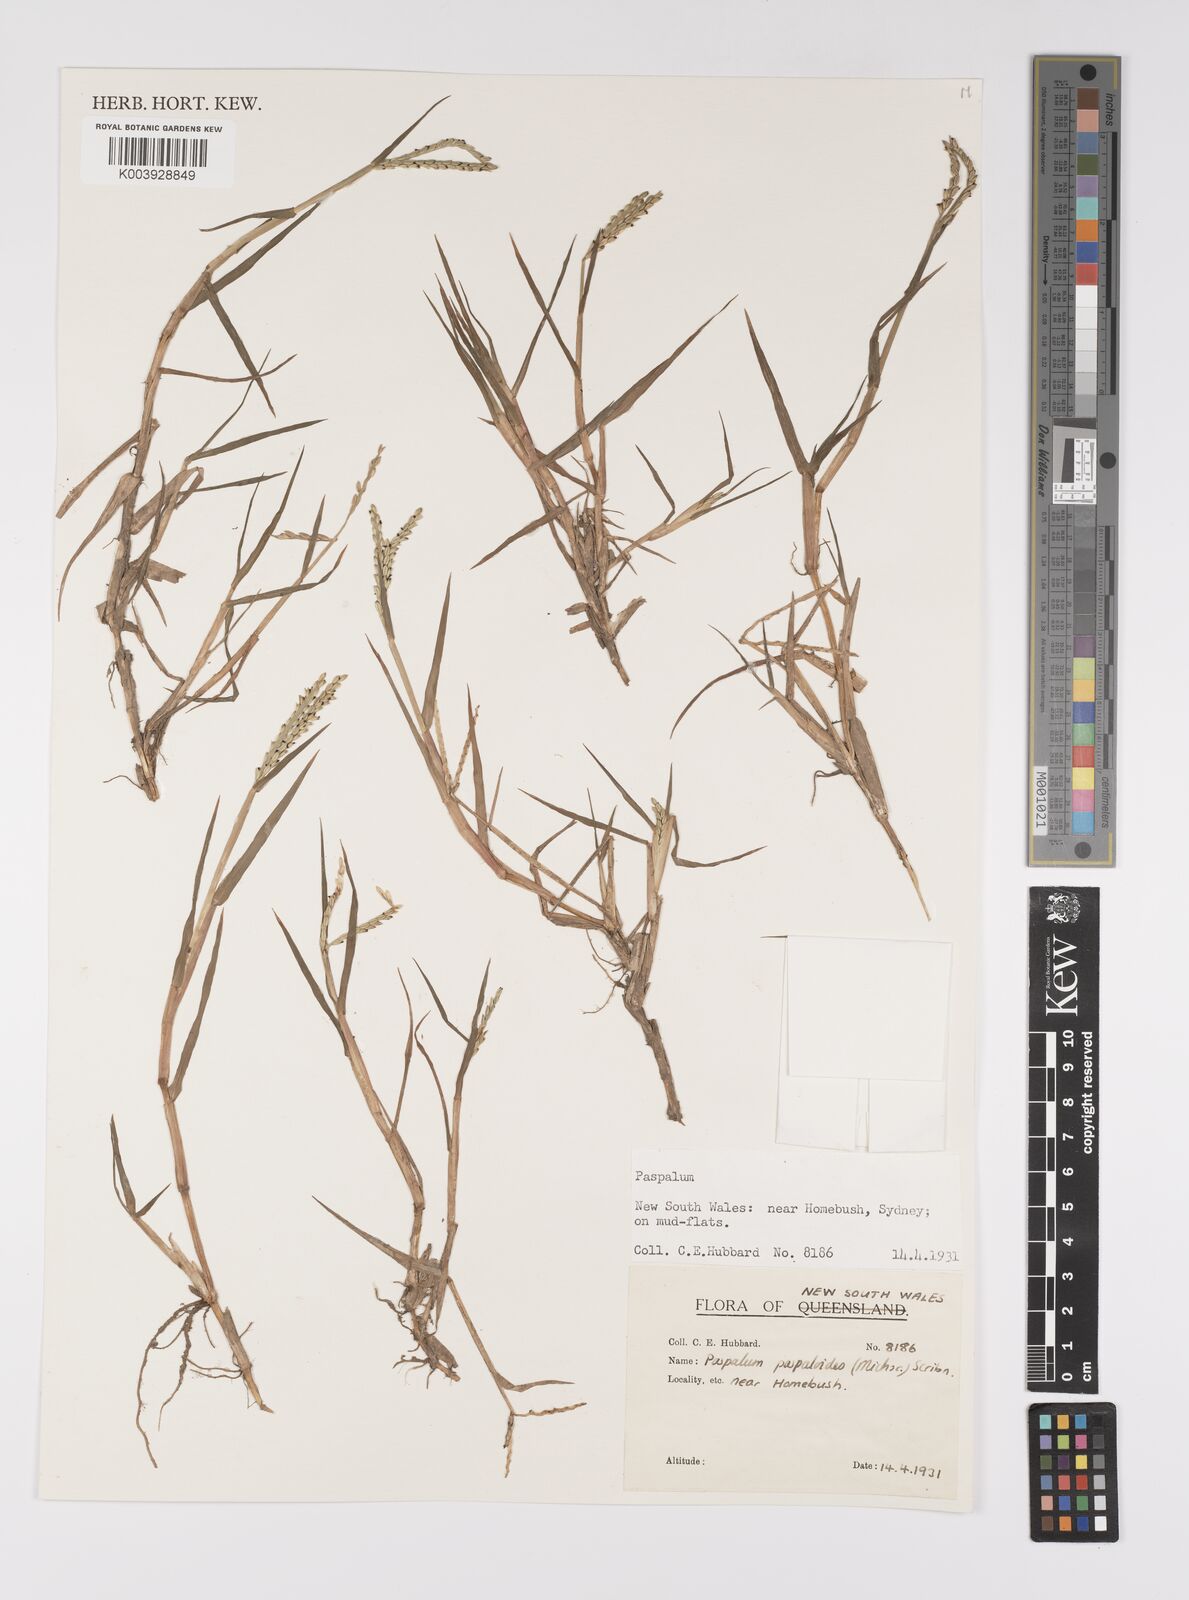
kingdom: Plantae
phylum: Tracheophyta
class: Liliopsida
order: Poales
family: Poaceae
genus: Paspalum
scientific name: Paspalum distichum
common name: Knotgrass
